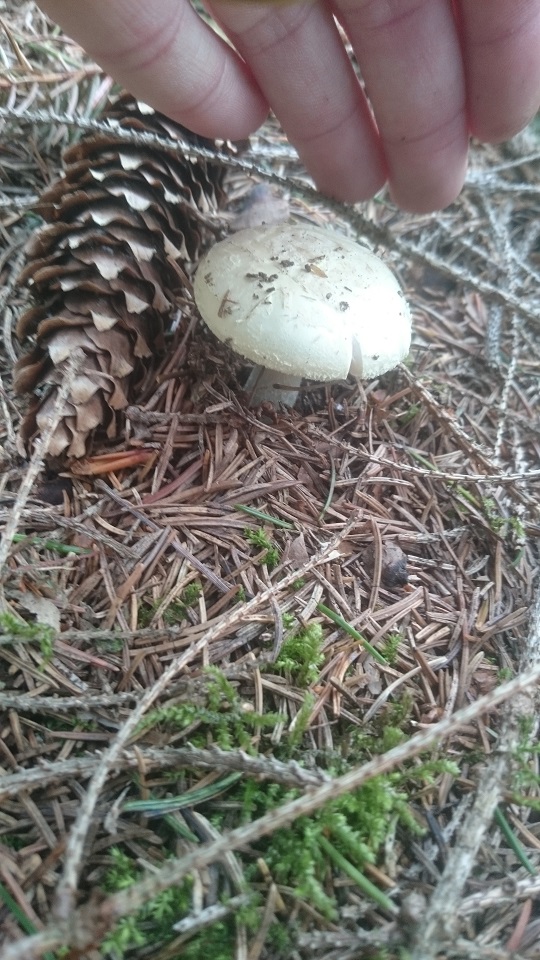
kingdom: Fungi
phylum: Basidiomycota
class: Agaricomycetes
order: Agaricales
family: Amanitaceae
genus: Amanita
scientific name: Amanita citrina
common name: False death-cap
